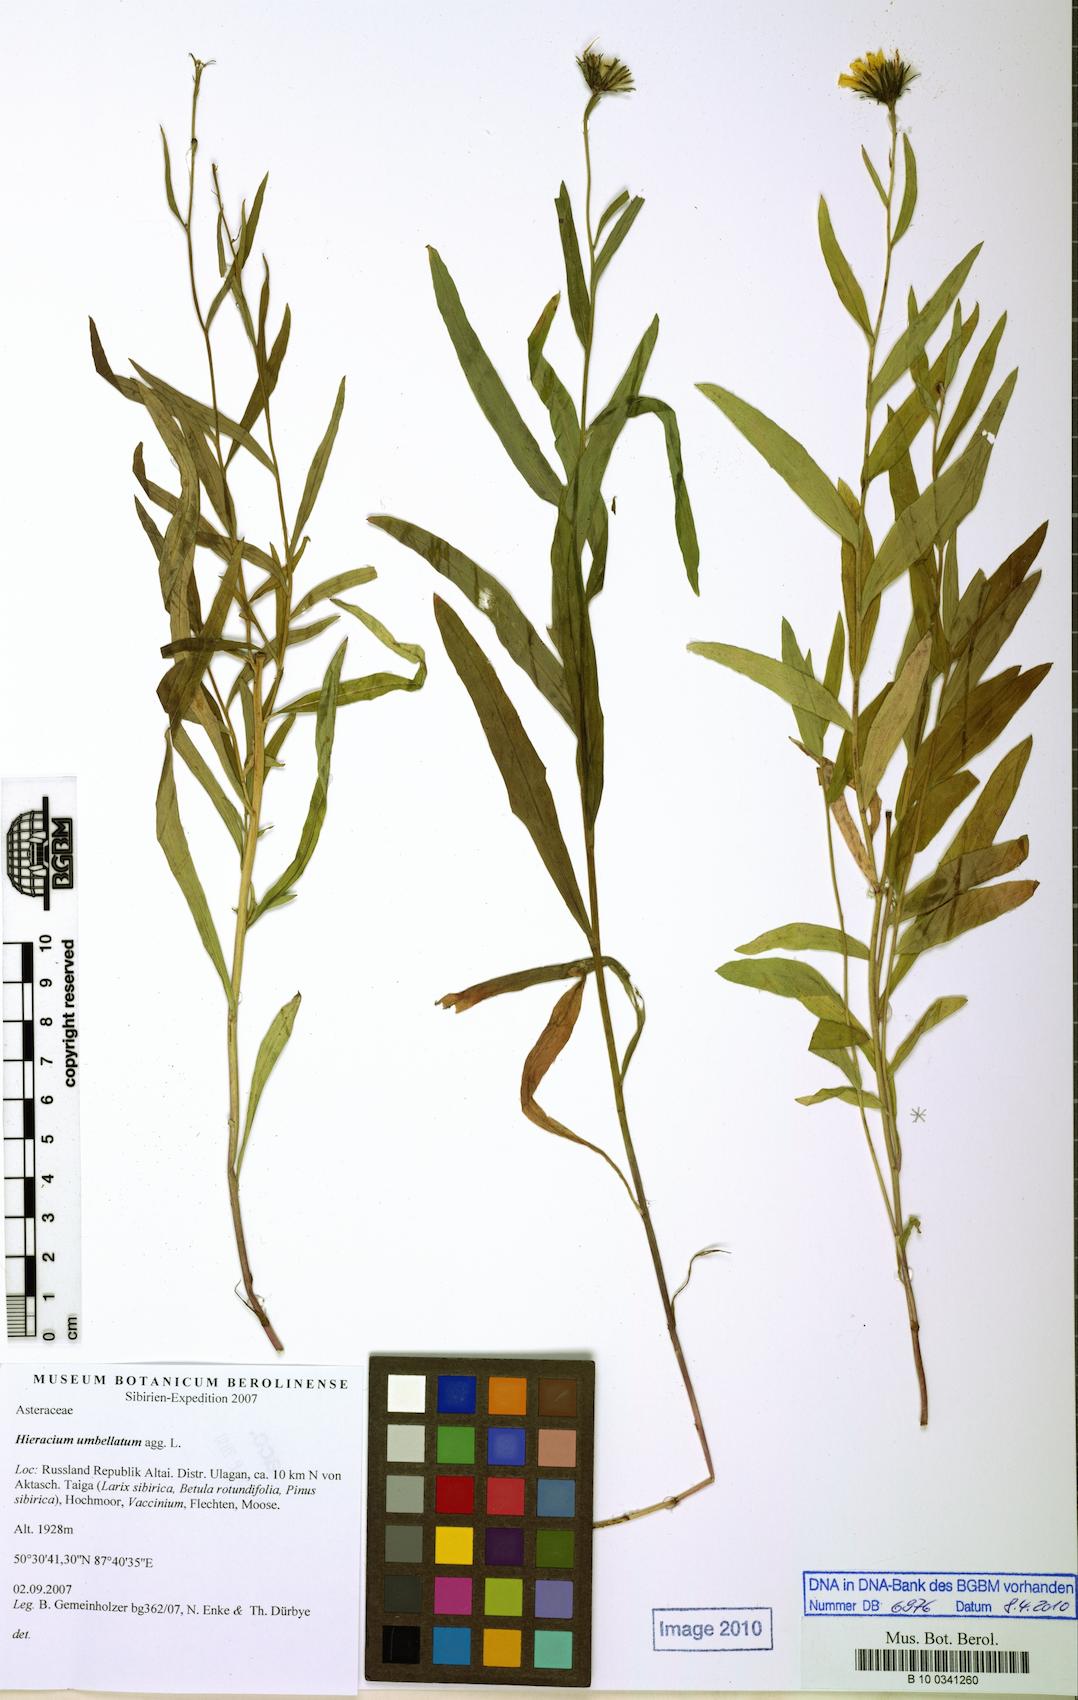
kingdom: Plantae
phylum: Tracheophyta
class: Magnoliopsida
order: Asterales
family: Asteraceae
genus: Hieracium
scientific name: Hieracium
